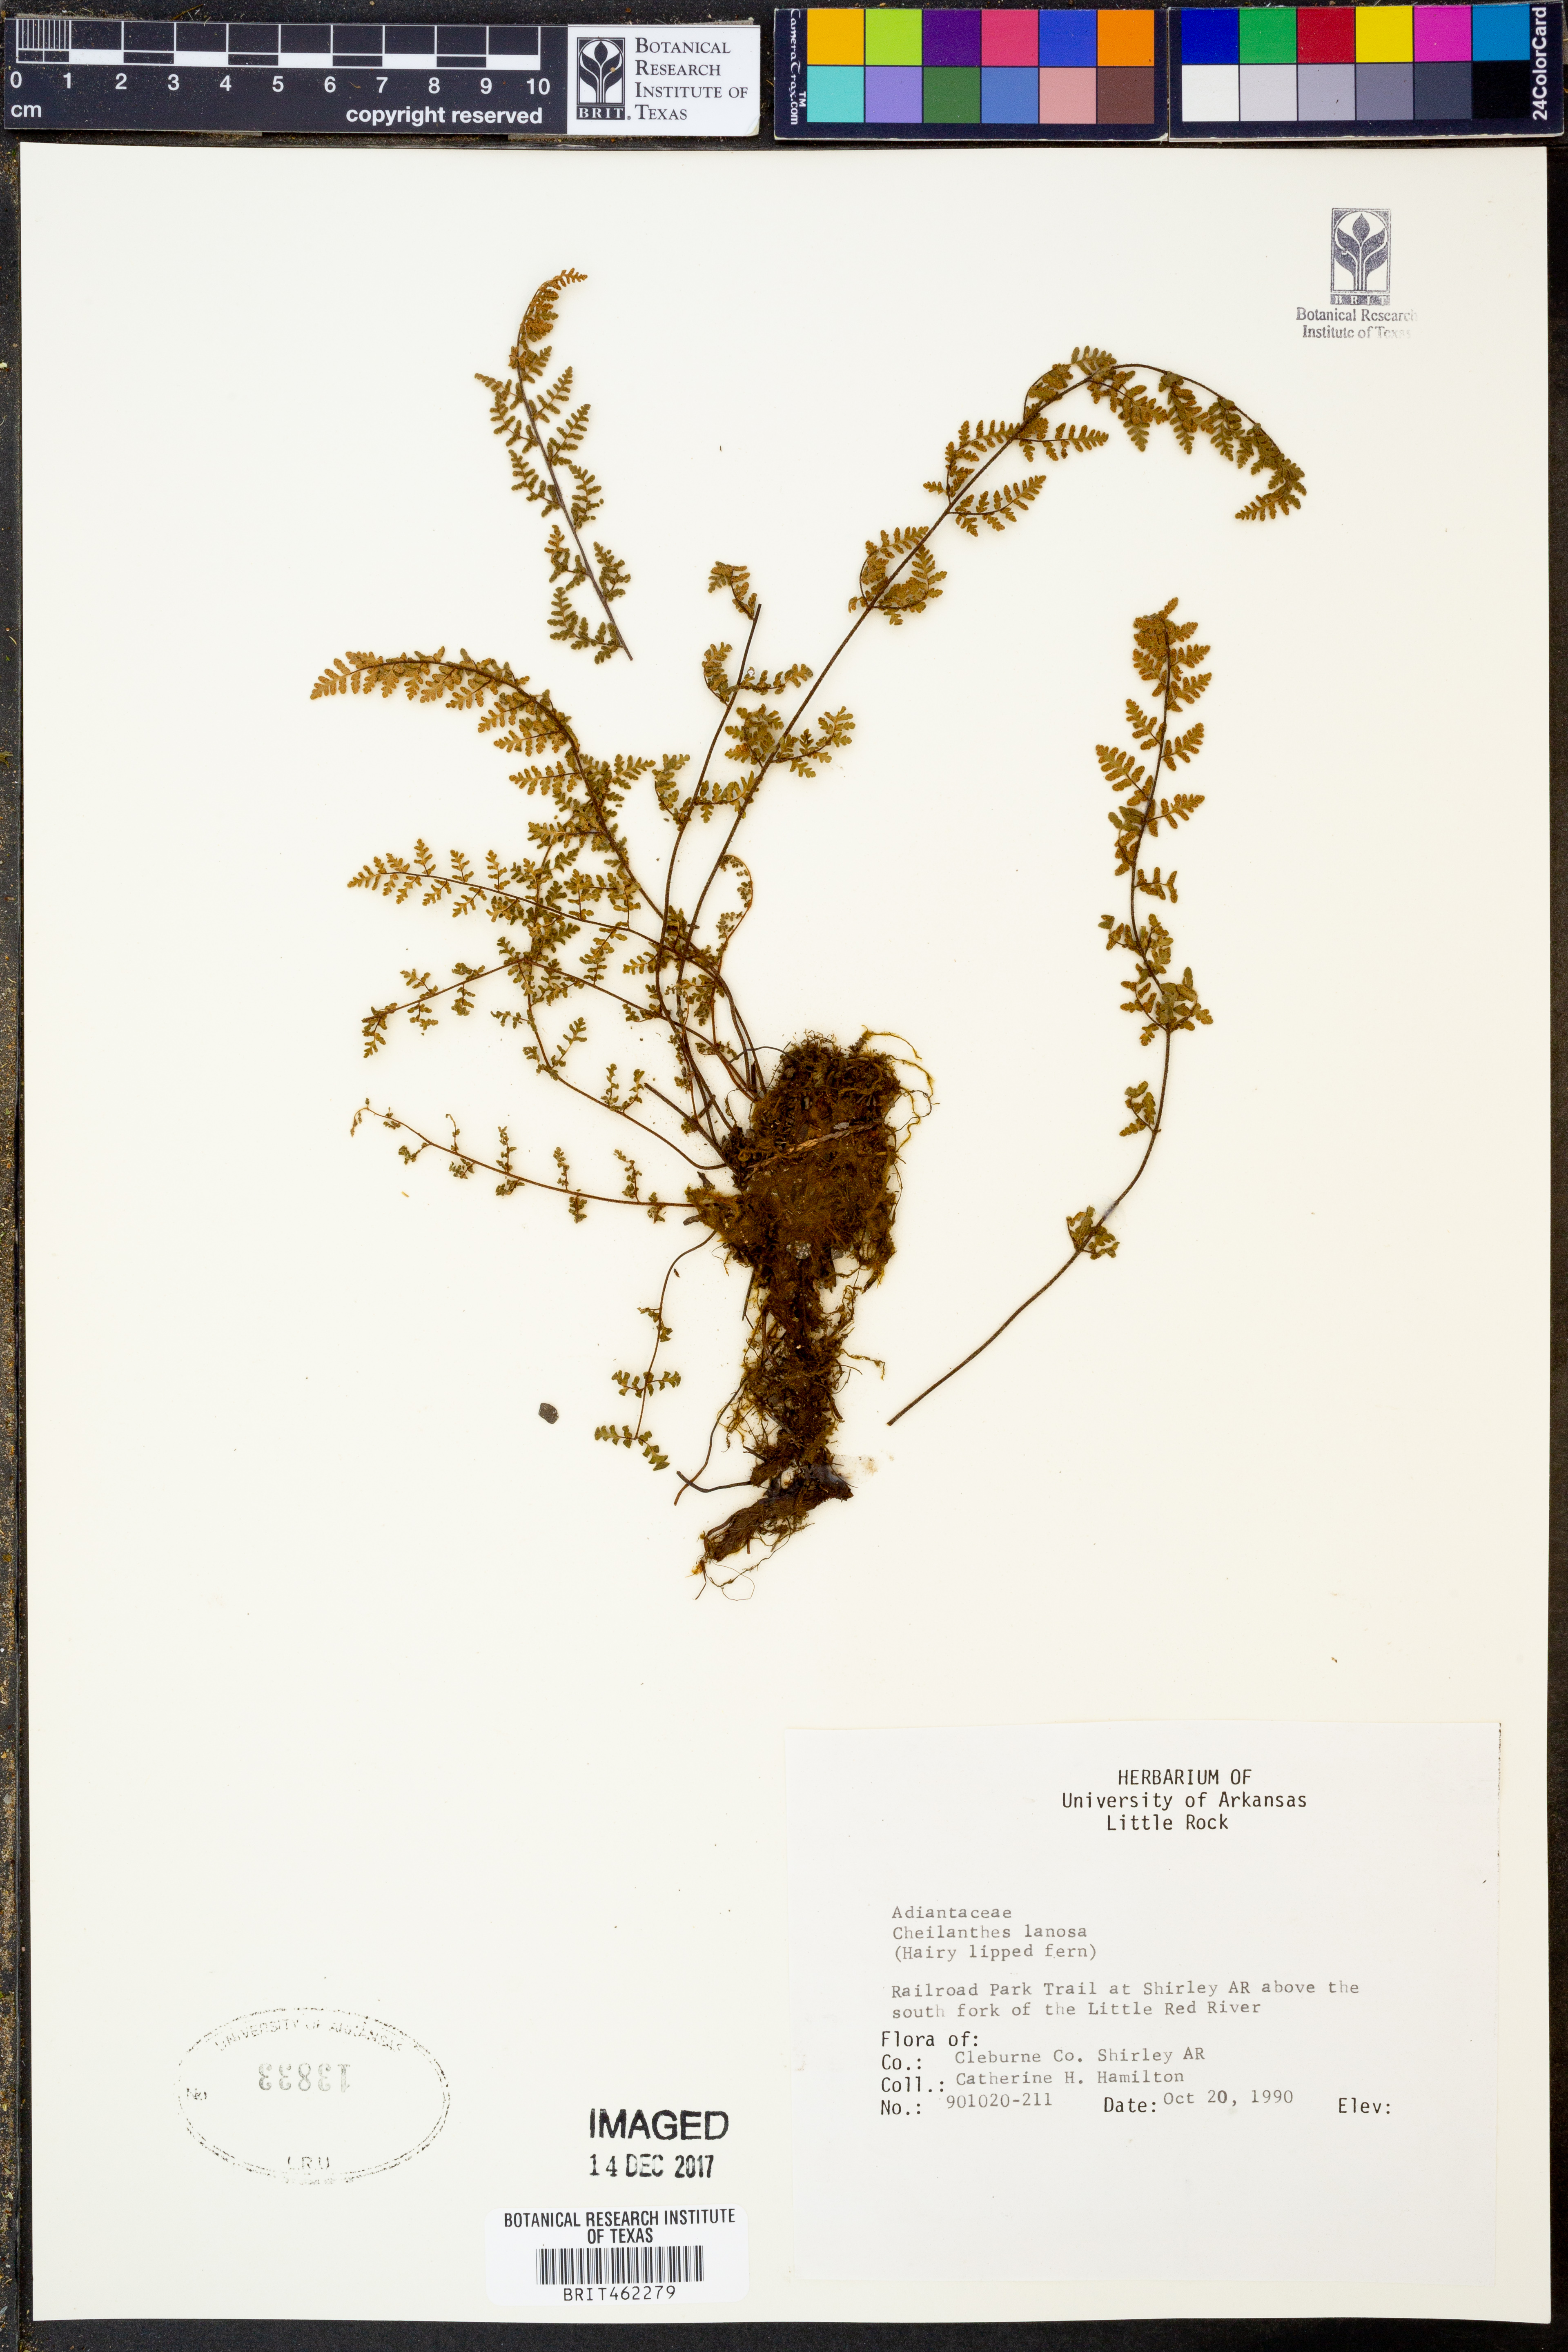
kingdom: Plantae
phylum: Tracheophyta
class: Polypodiopsida
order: Polypodiales
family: Pteridaceae
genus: Myriopteris
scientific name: Myriopteris lanosa
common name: Hairy lip fern
